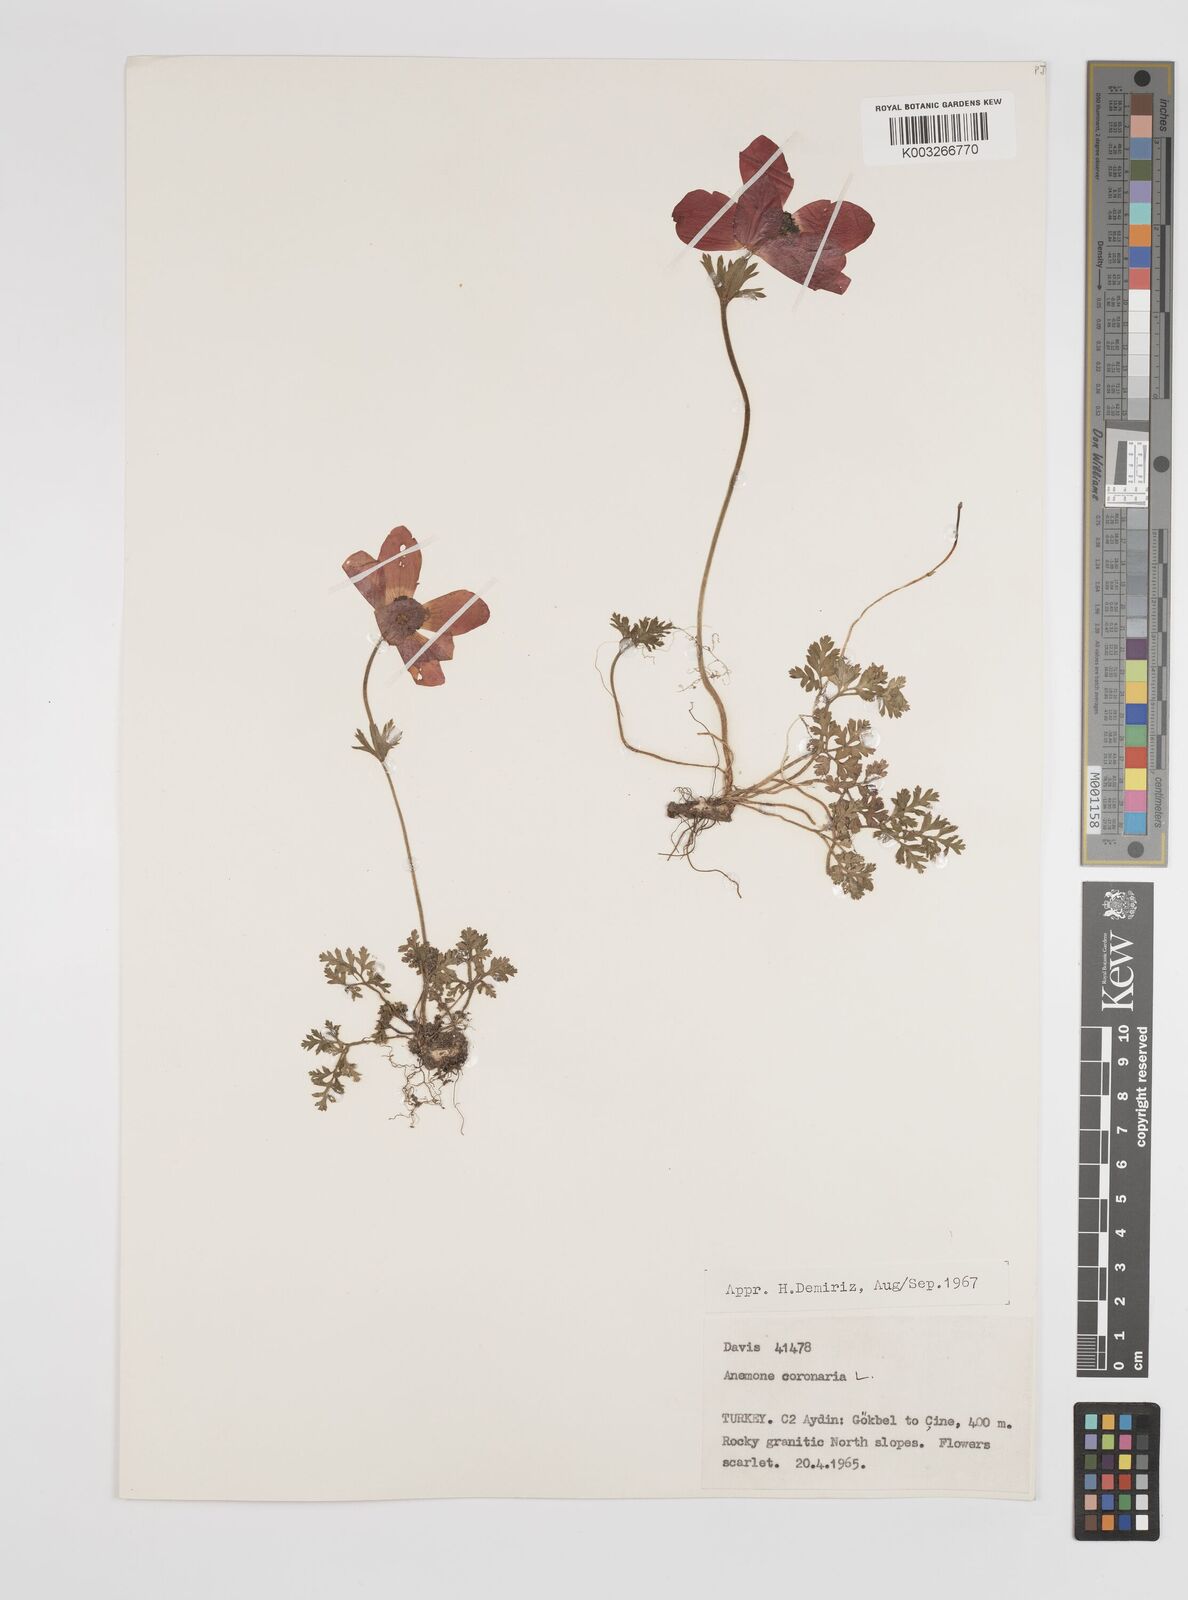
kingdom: Plantae
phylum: Tracheophyta
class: Magnoliopsida
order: Ranunculales
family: Ranunculaceae
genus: Anemone
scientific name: Anemone coronaria
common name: Poppy anemone
